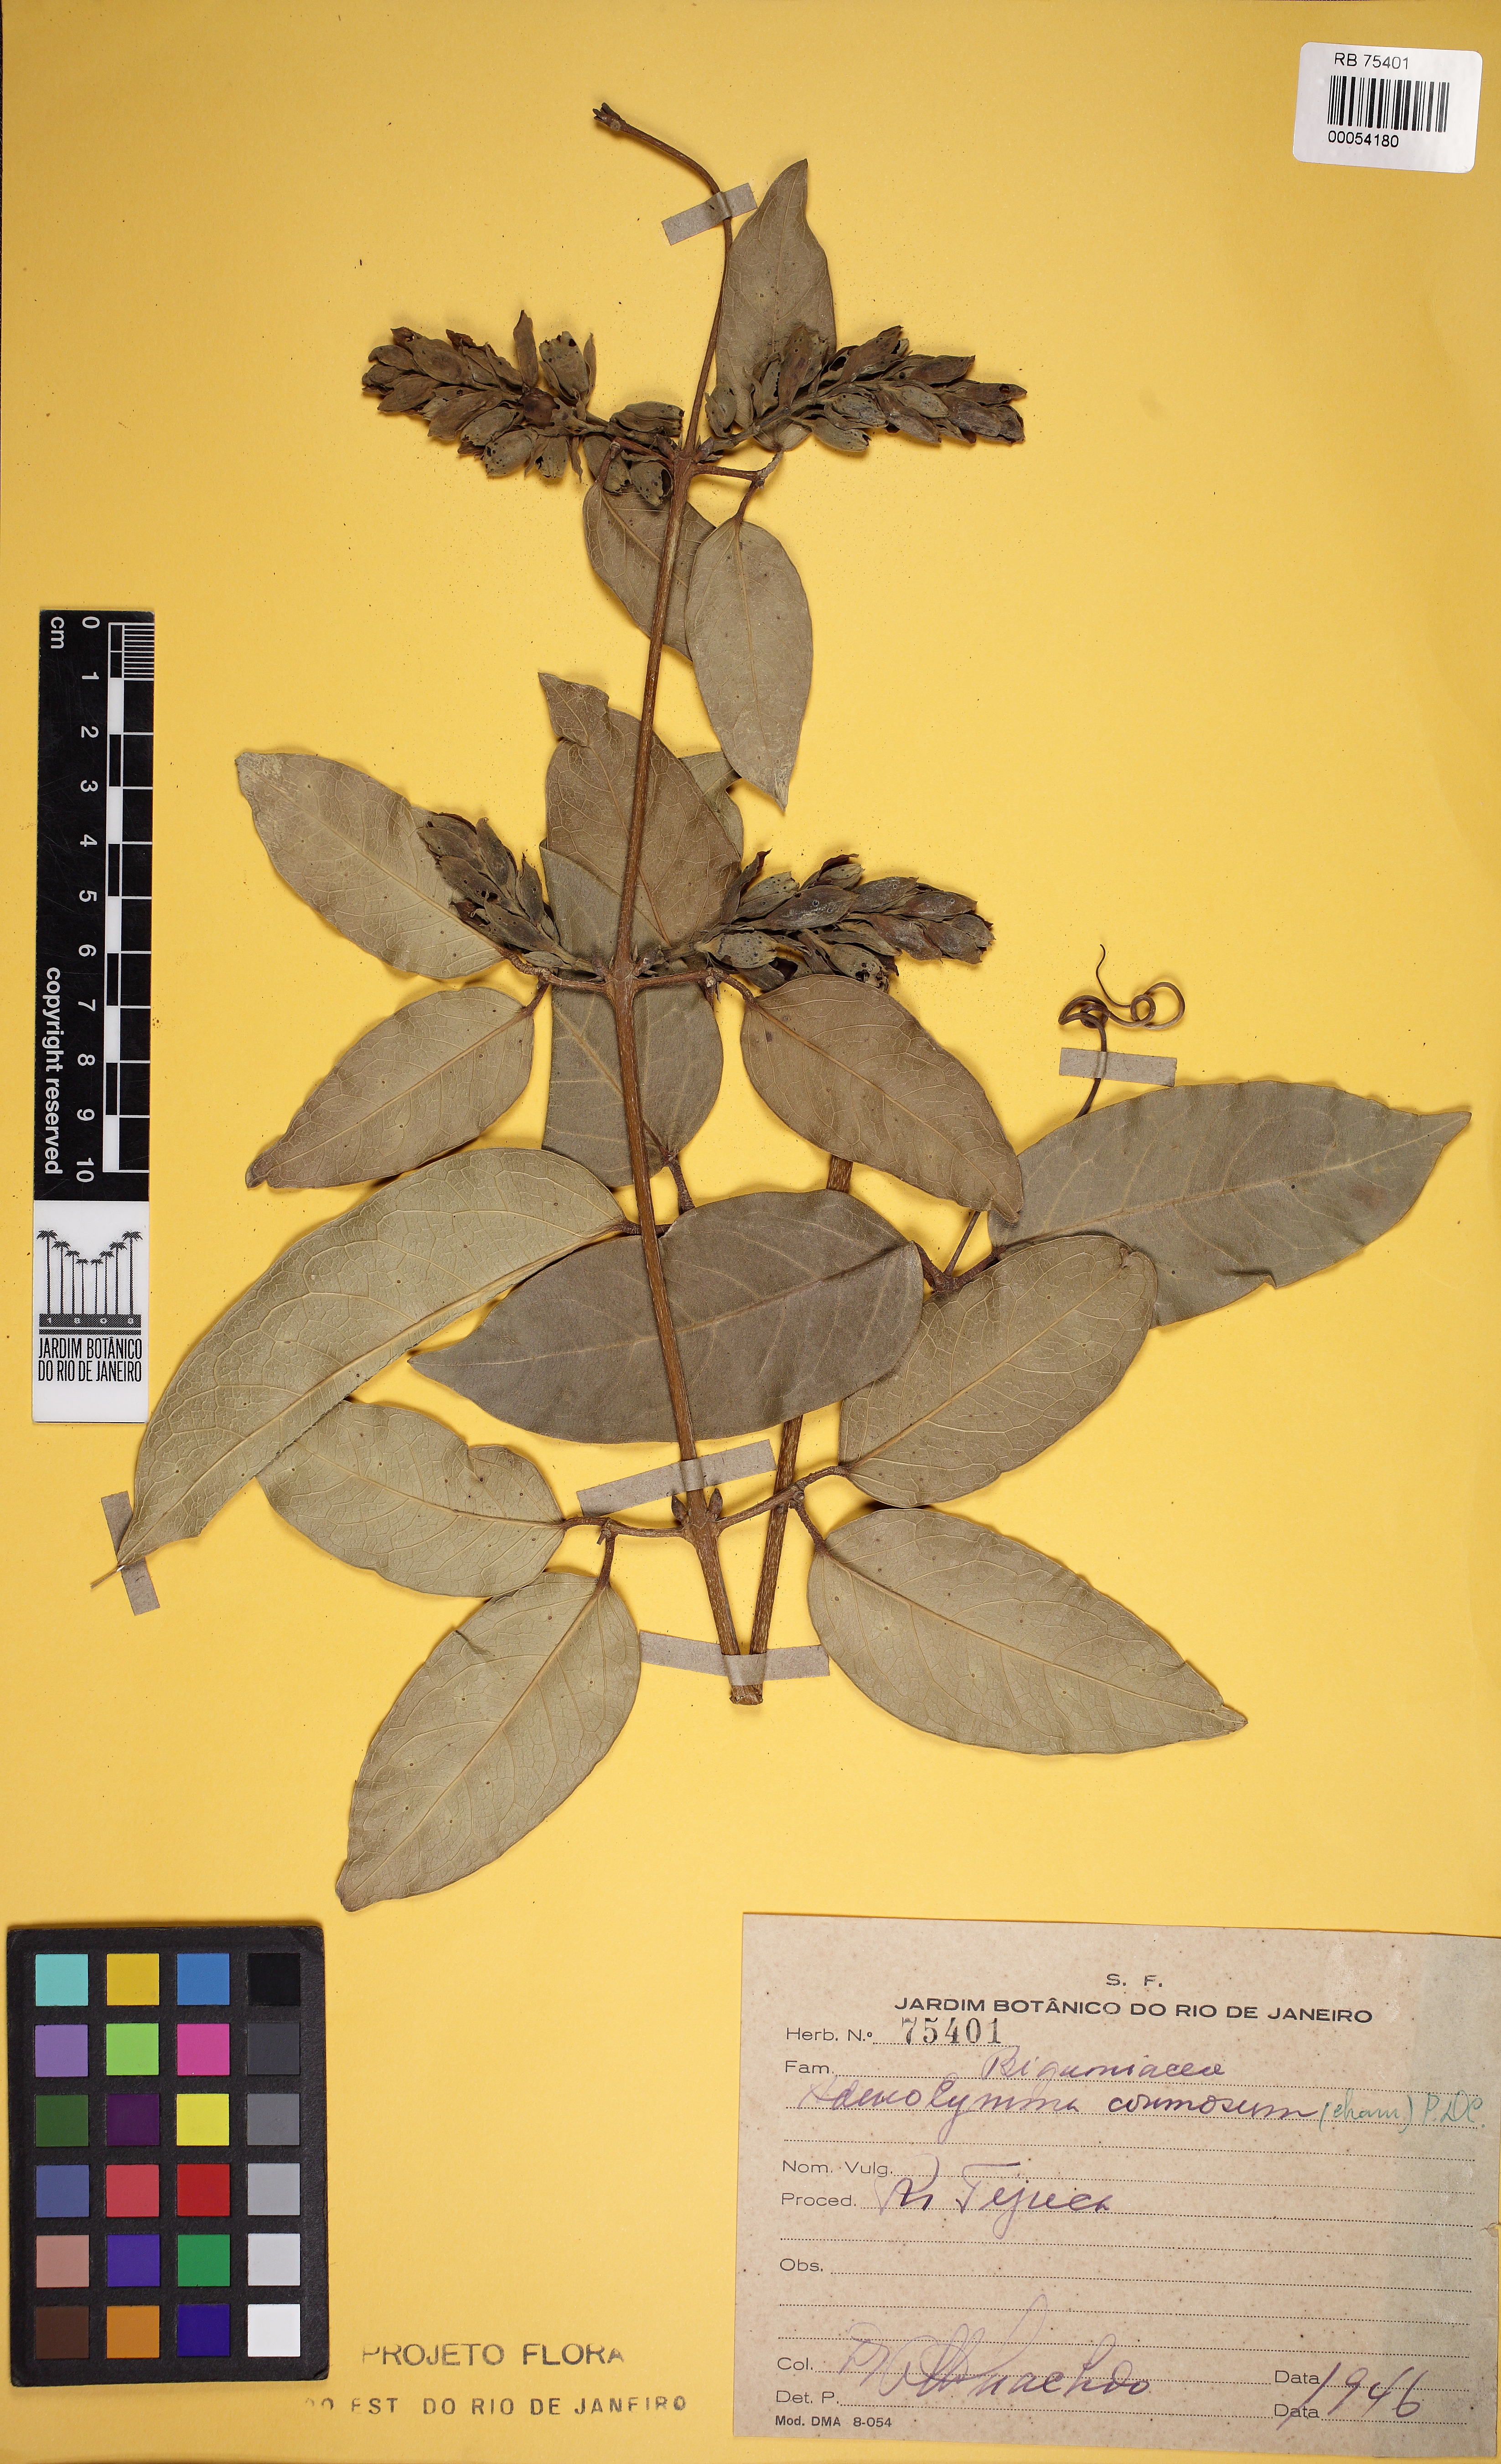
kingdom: Plantae
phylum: Tracheophyta
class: Magnoliopsida
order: Lamiales
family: Bignoniaceae
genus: Adenocalymma
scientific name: Adenocalymma acutissimum
